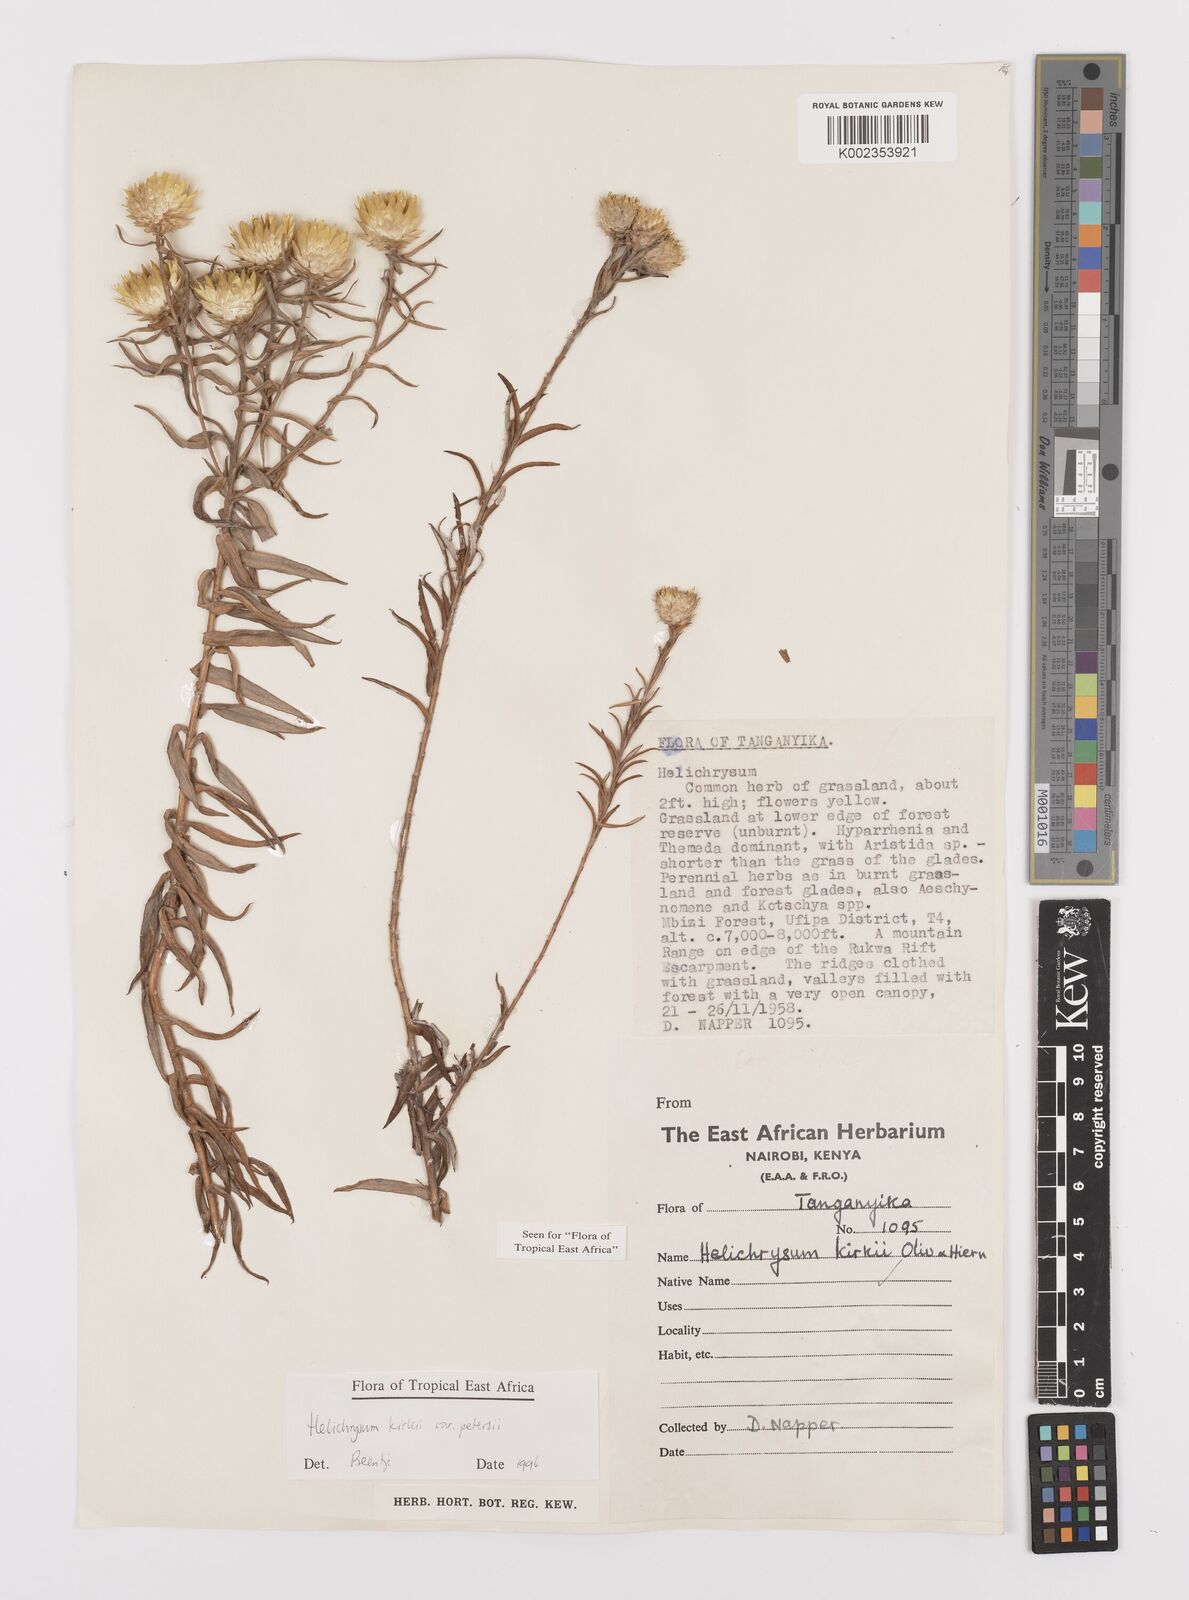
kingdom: Plantae
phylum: Tracheophyta
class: Magnoliopsida
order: Asterales
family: Asteraceae
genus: Helichrysum
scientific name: Helichrysum kirkii
